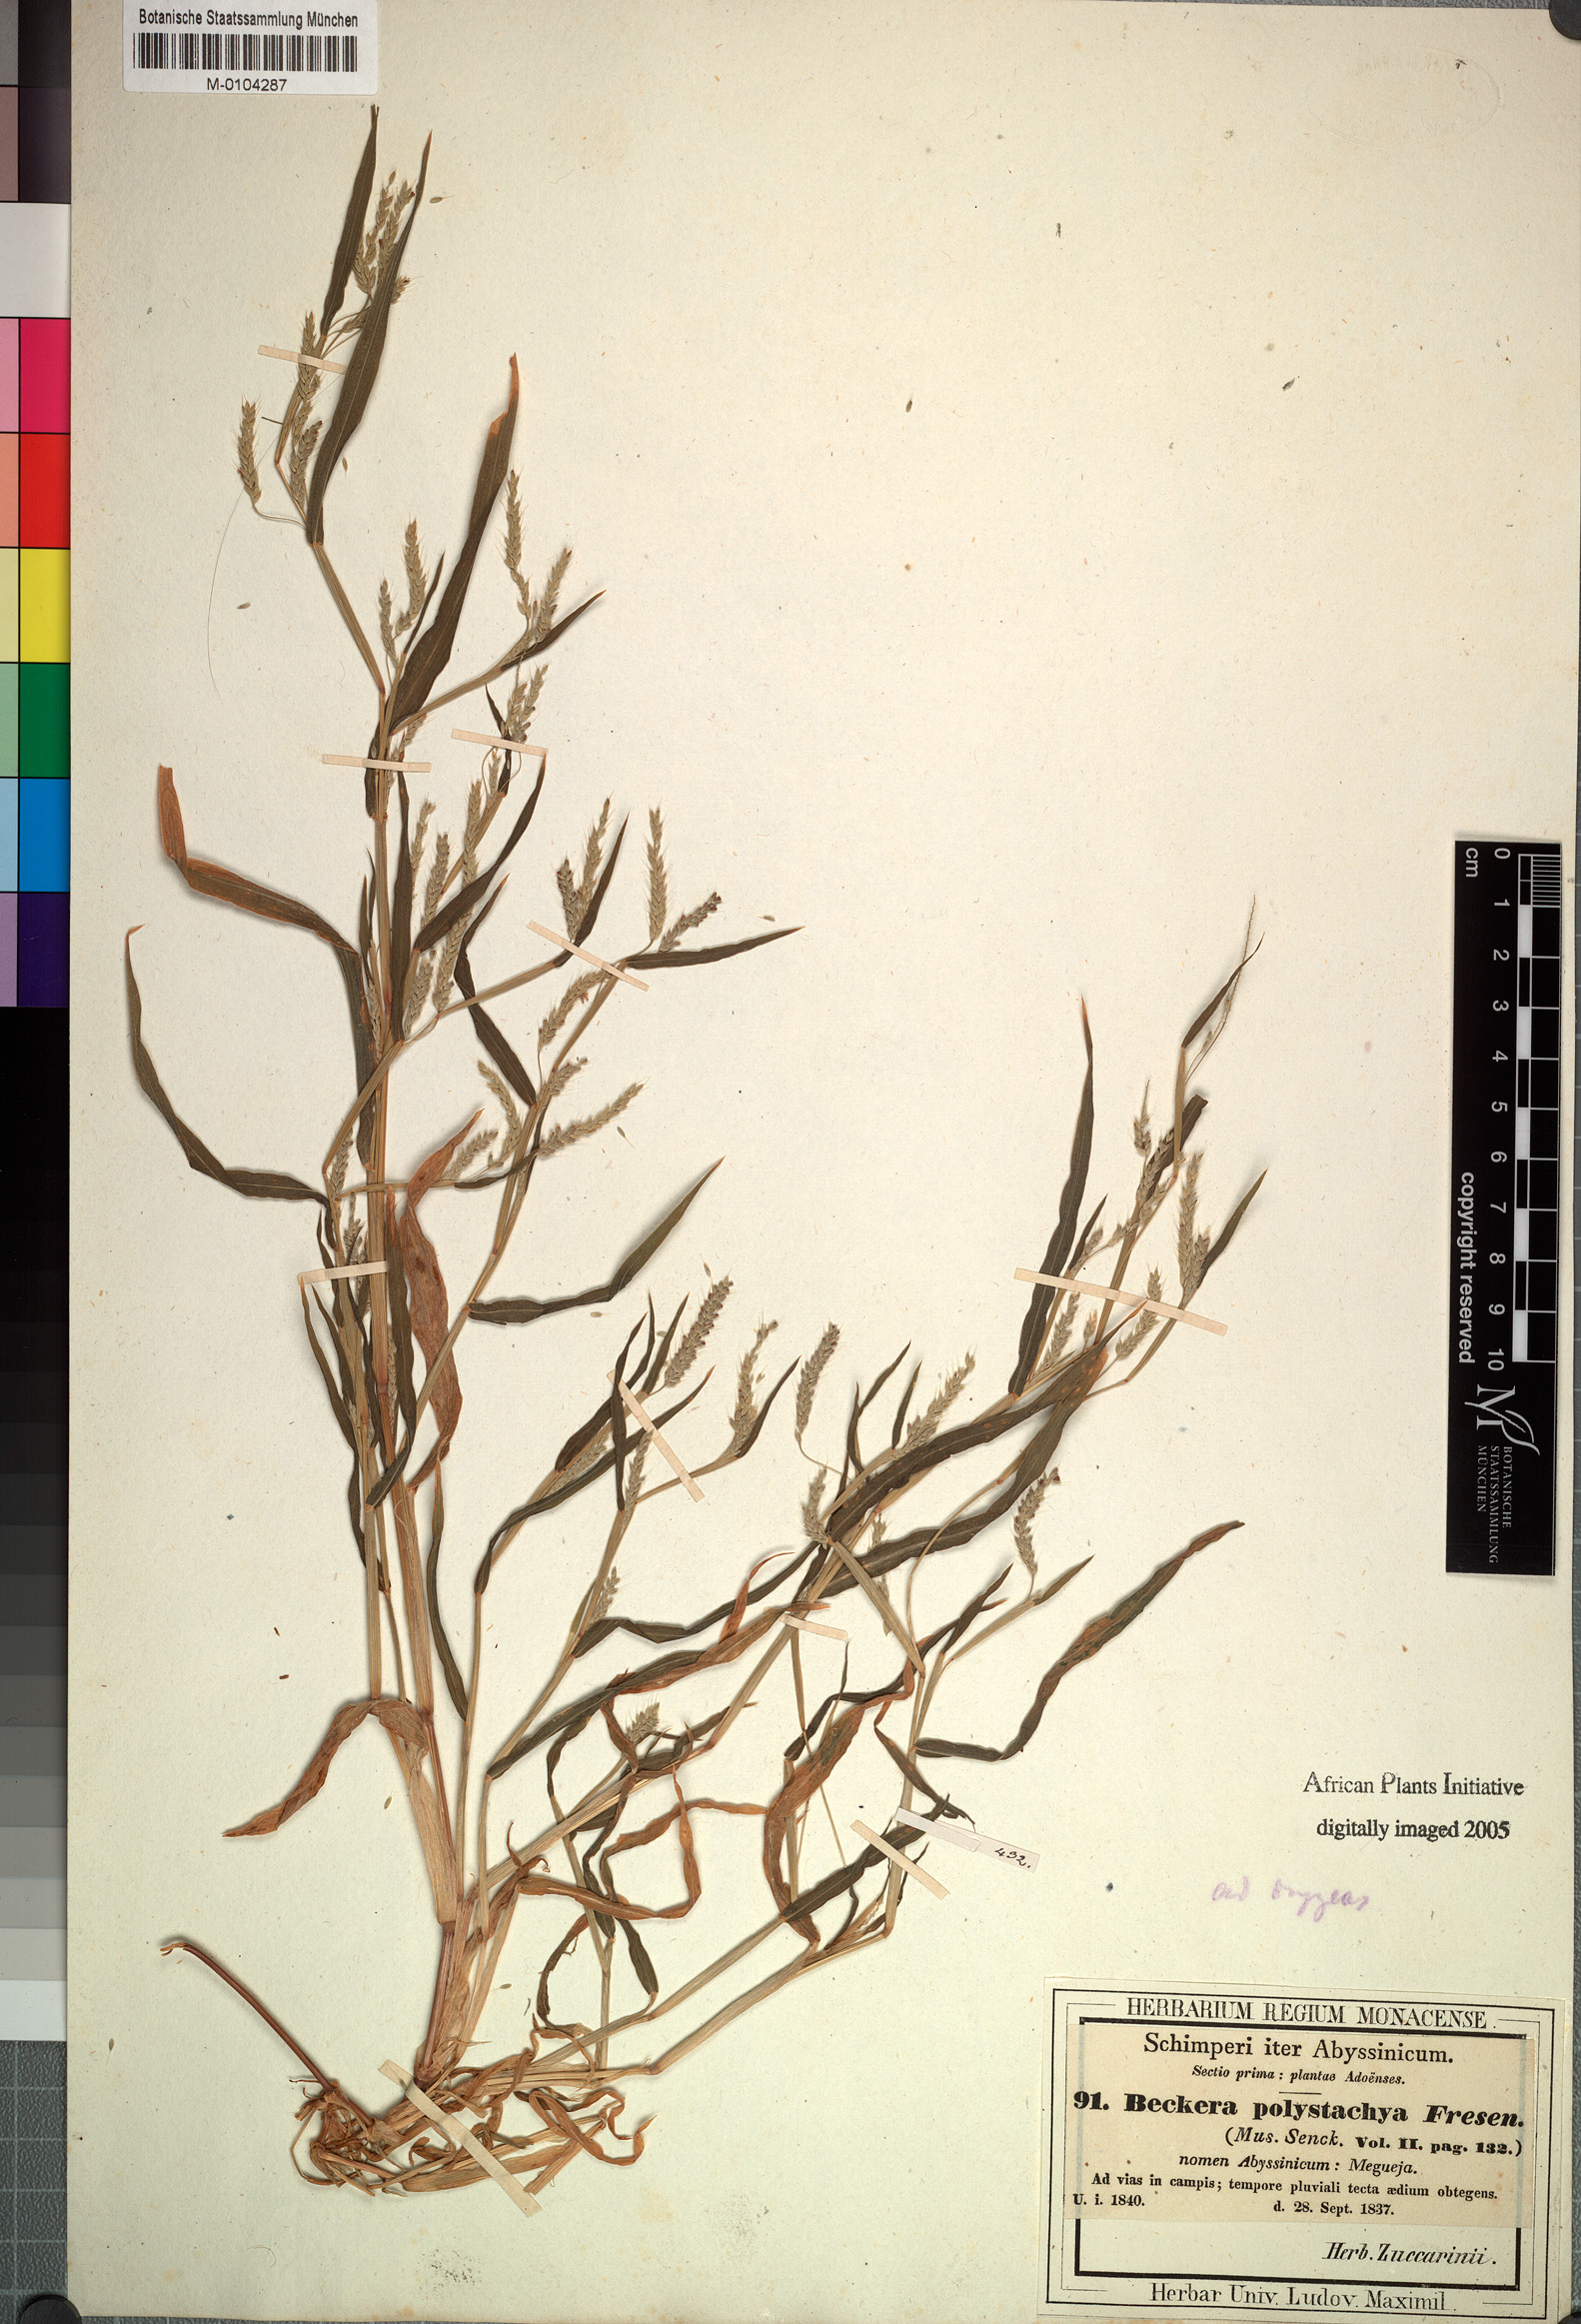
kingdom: Plantae
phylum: Tracheophyta
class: Liliopsida
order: Poales
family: Poaceae
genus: Snowdenia
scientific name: Snowdenia polystachya
